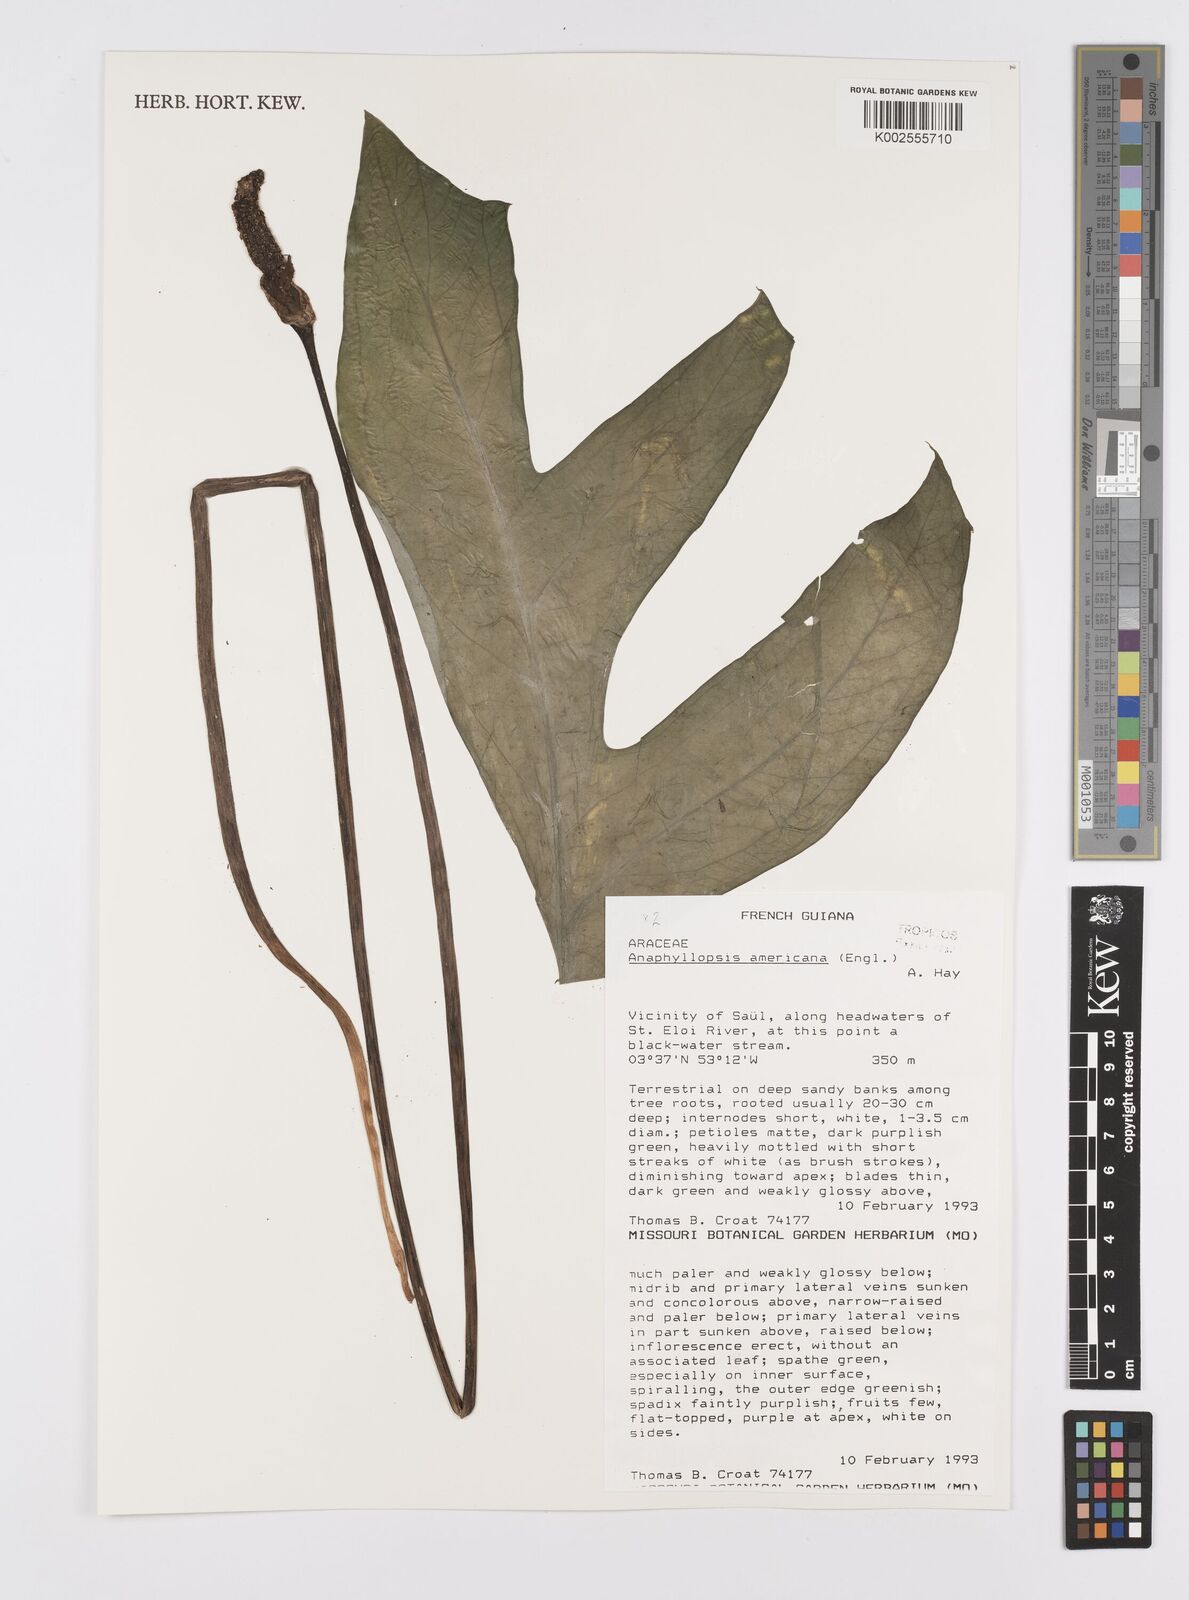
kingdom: Plantae
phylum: Tracheophyta
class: Liliopsida
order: Alismatales
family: Araceae
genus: Anaphyllopsis
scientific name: Anaphyllopsis americana
